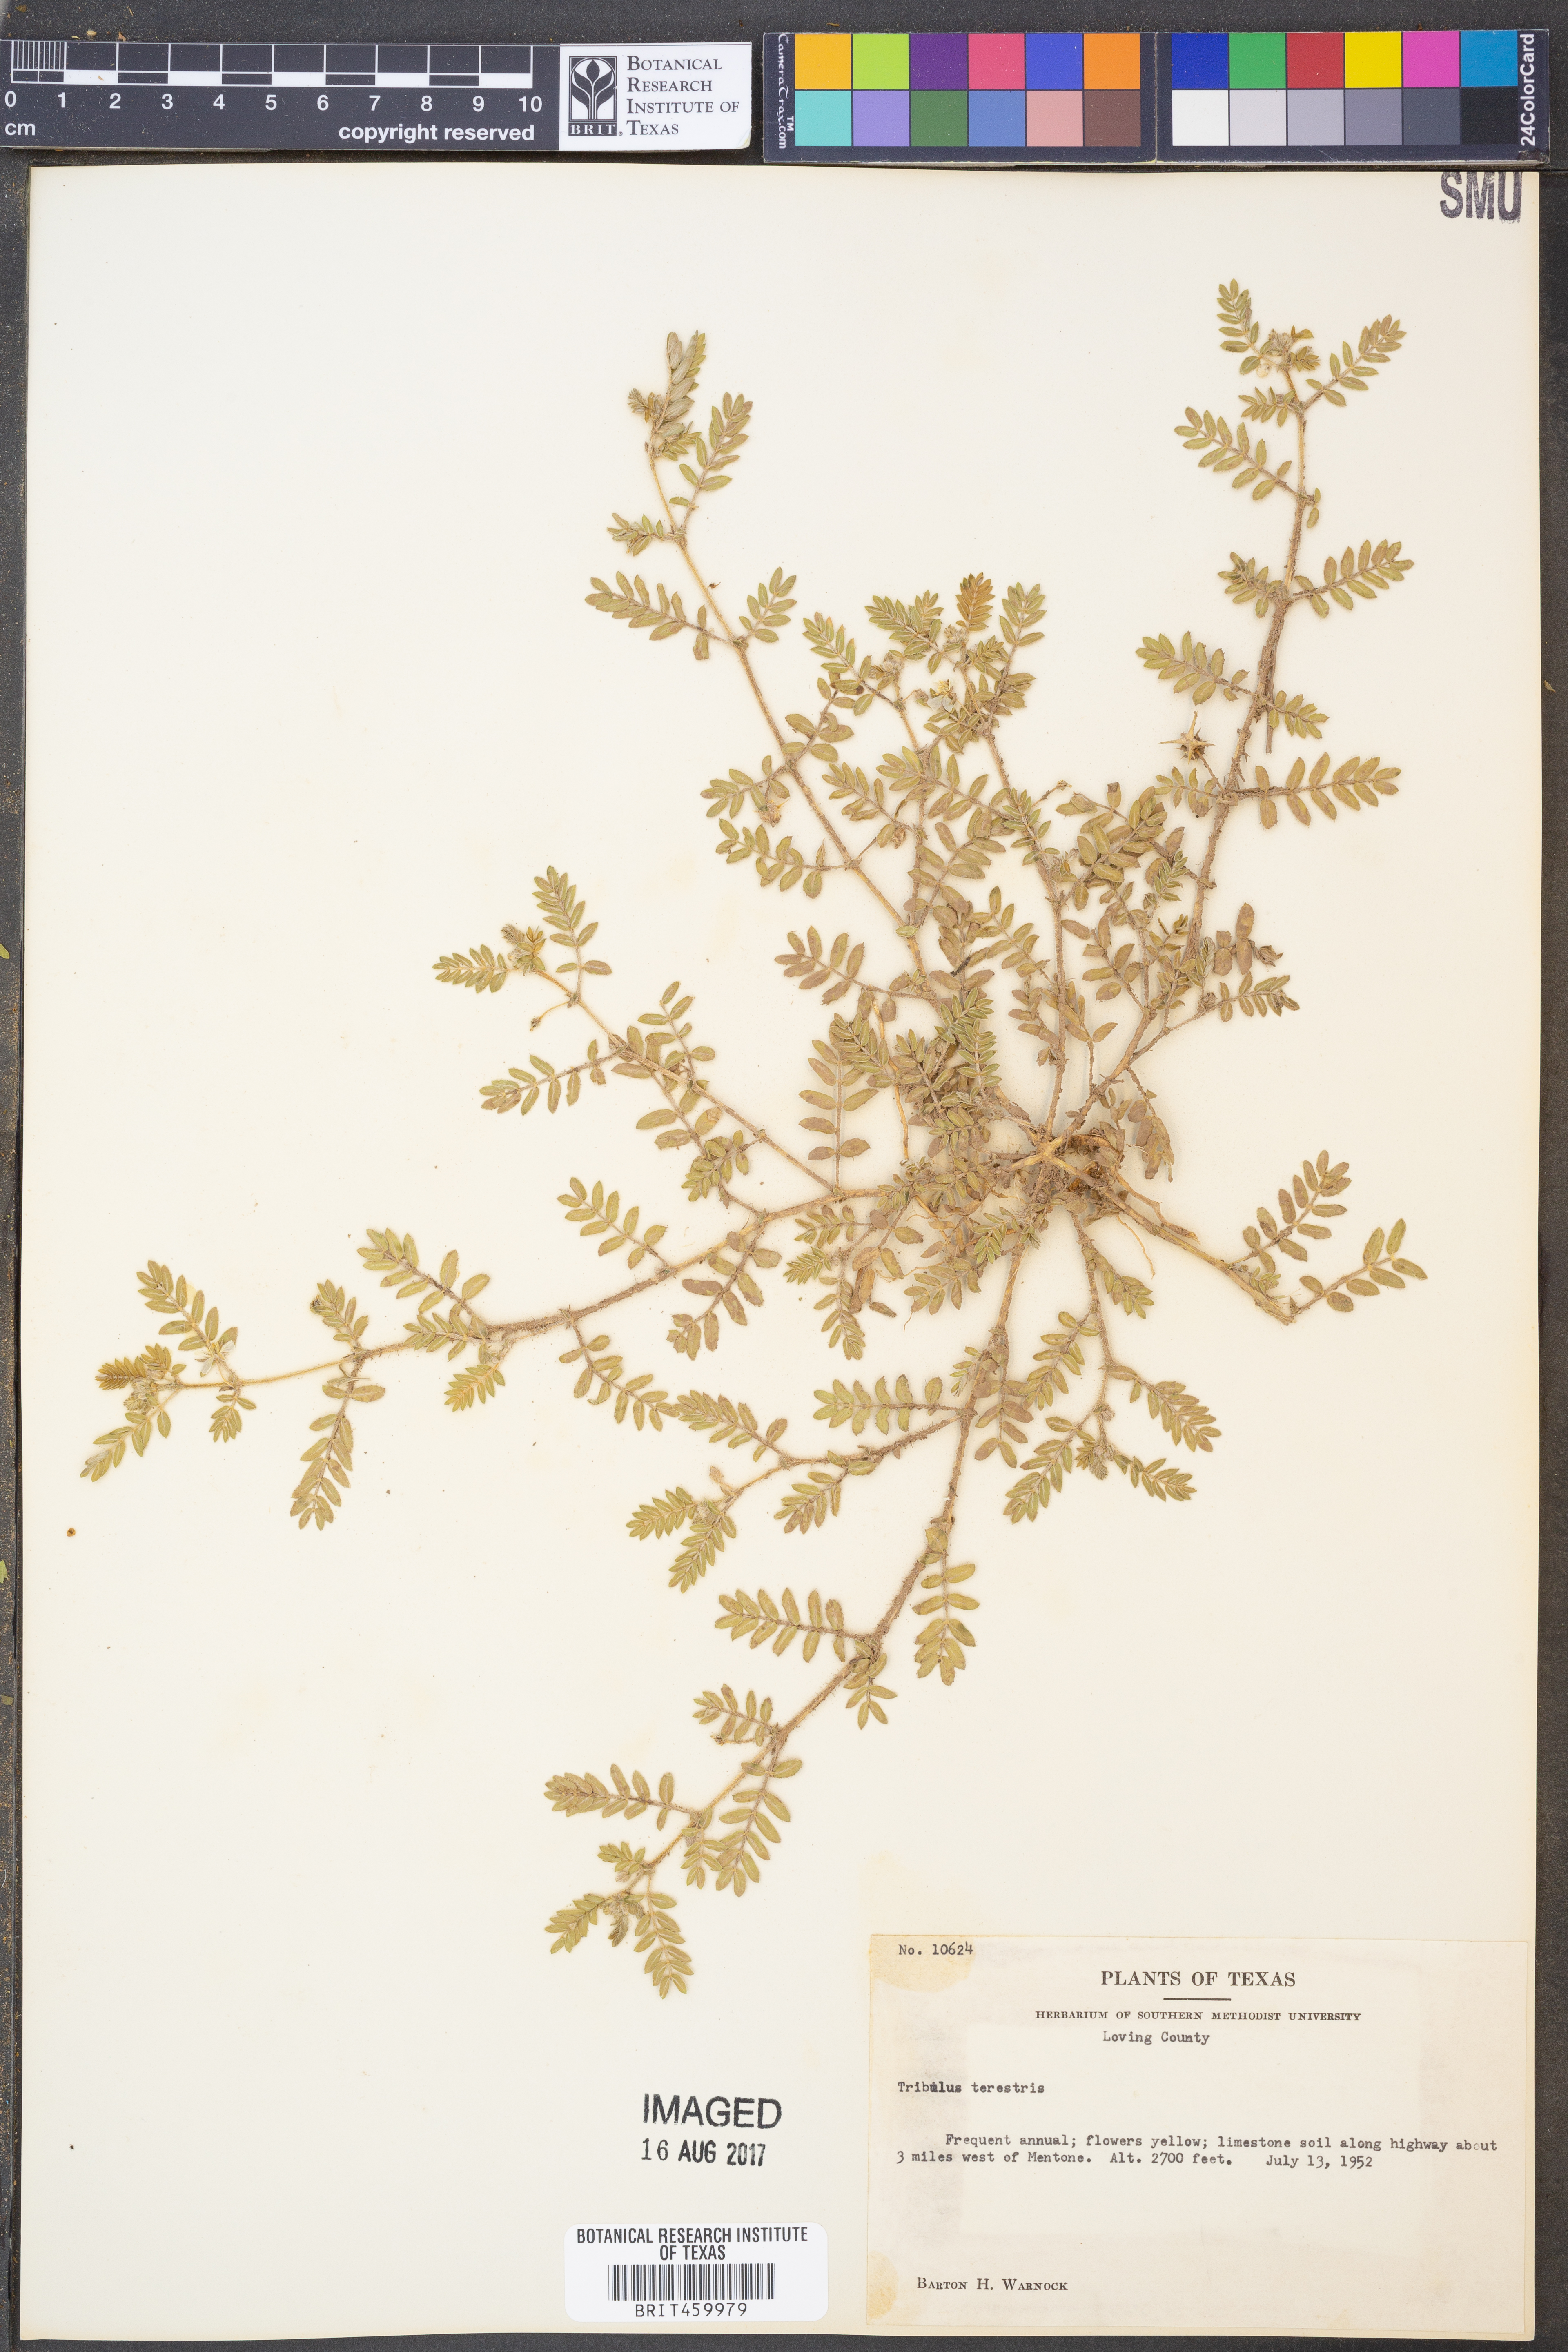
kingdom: Plantae
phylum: Tracheophyta
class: Magnoliopsida
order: Zygophyllales
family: Zygophyllaceae
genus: Tribulus
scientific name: Tribulus terrestris
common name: Puncturevine
